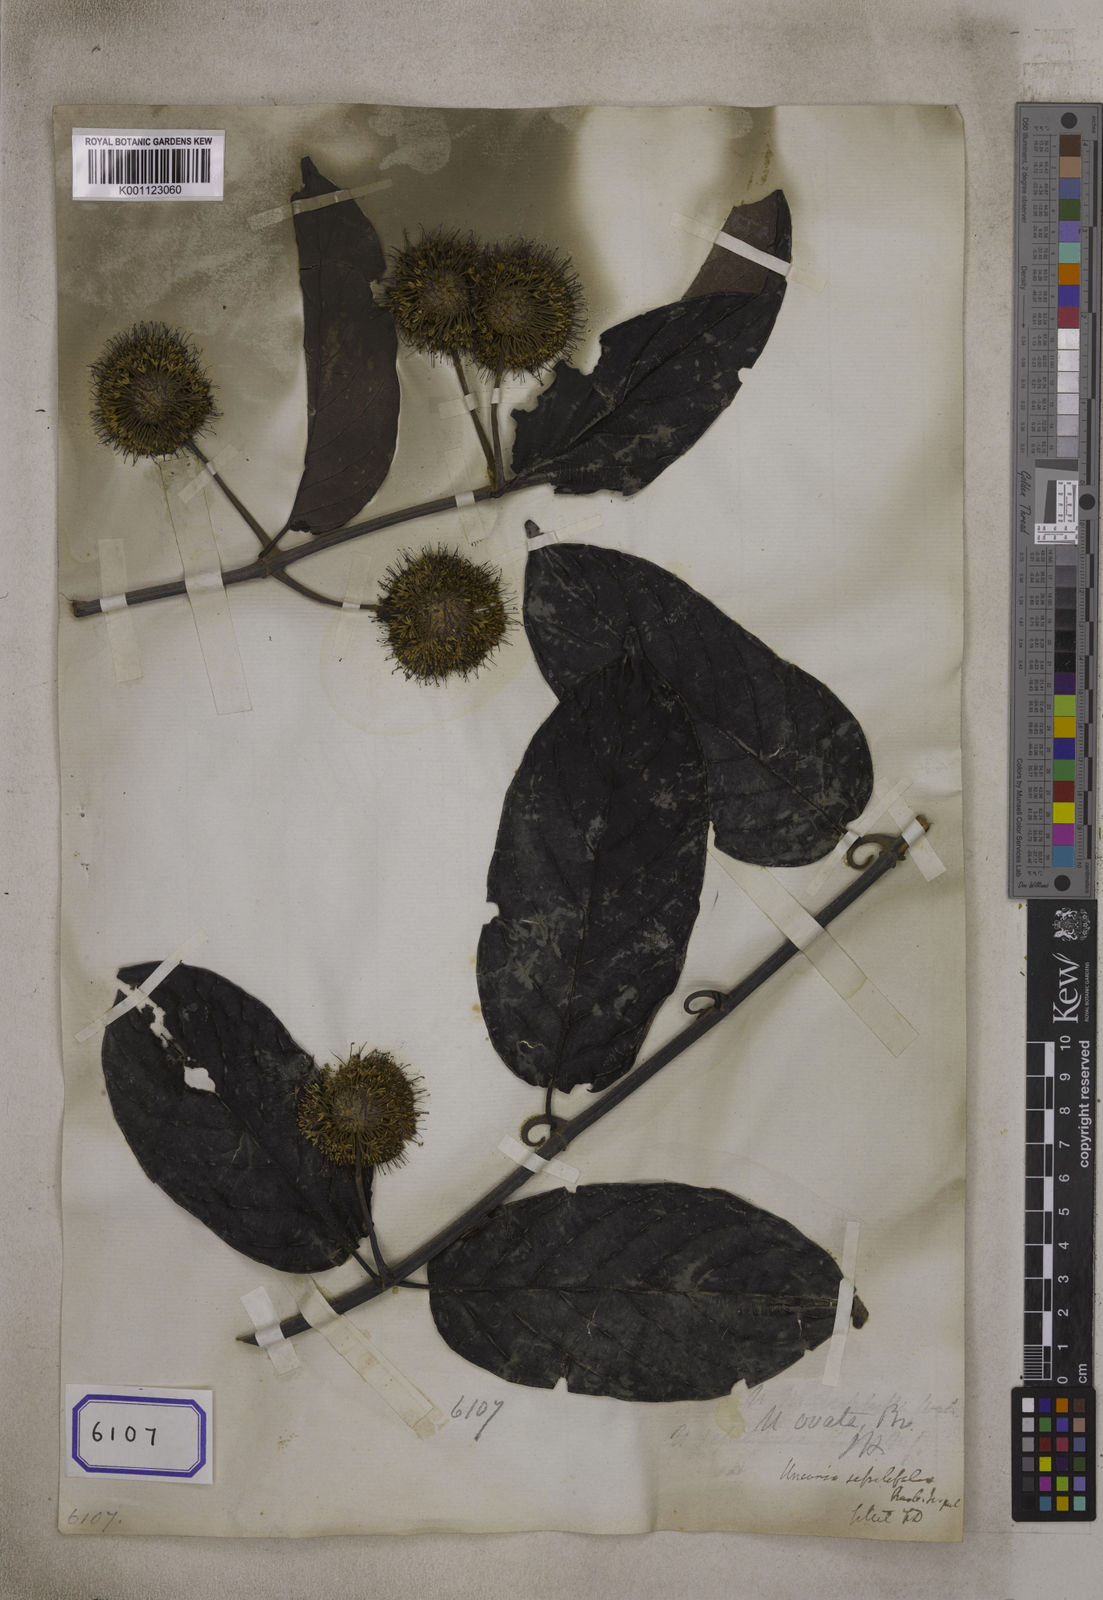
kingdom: Plantae
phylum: Tracheophyta
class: Magnoliopsida
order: Gentianales
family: Rubiaceae
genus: Uncaria
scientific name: Uncaria
